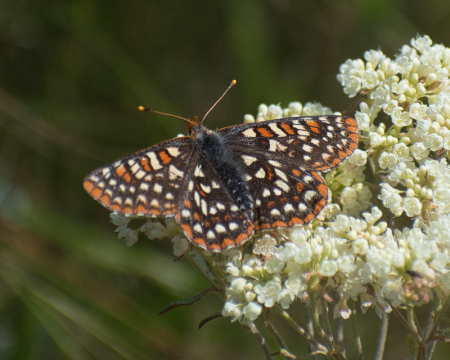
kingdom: Animalia
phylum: Arthropoda
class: Insecta
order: Lepidoptera
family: Nymphalidae
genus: Occidryas
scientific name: Occidryas anicia
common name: Anicia Checkerspot
